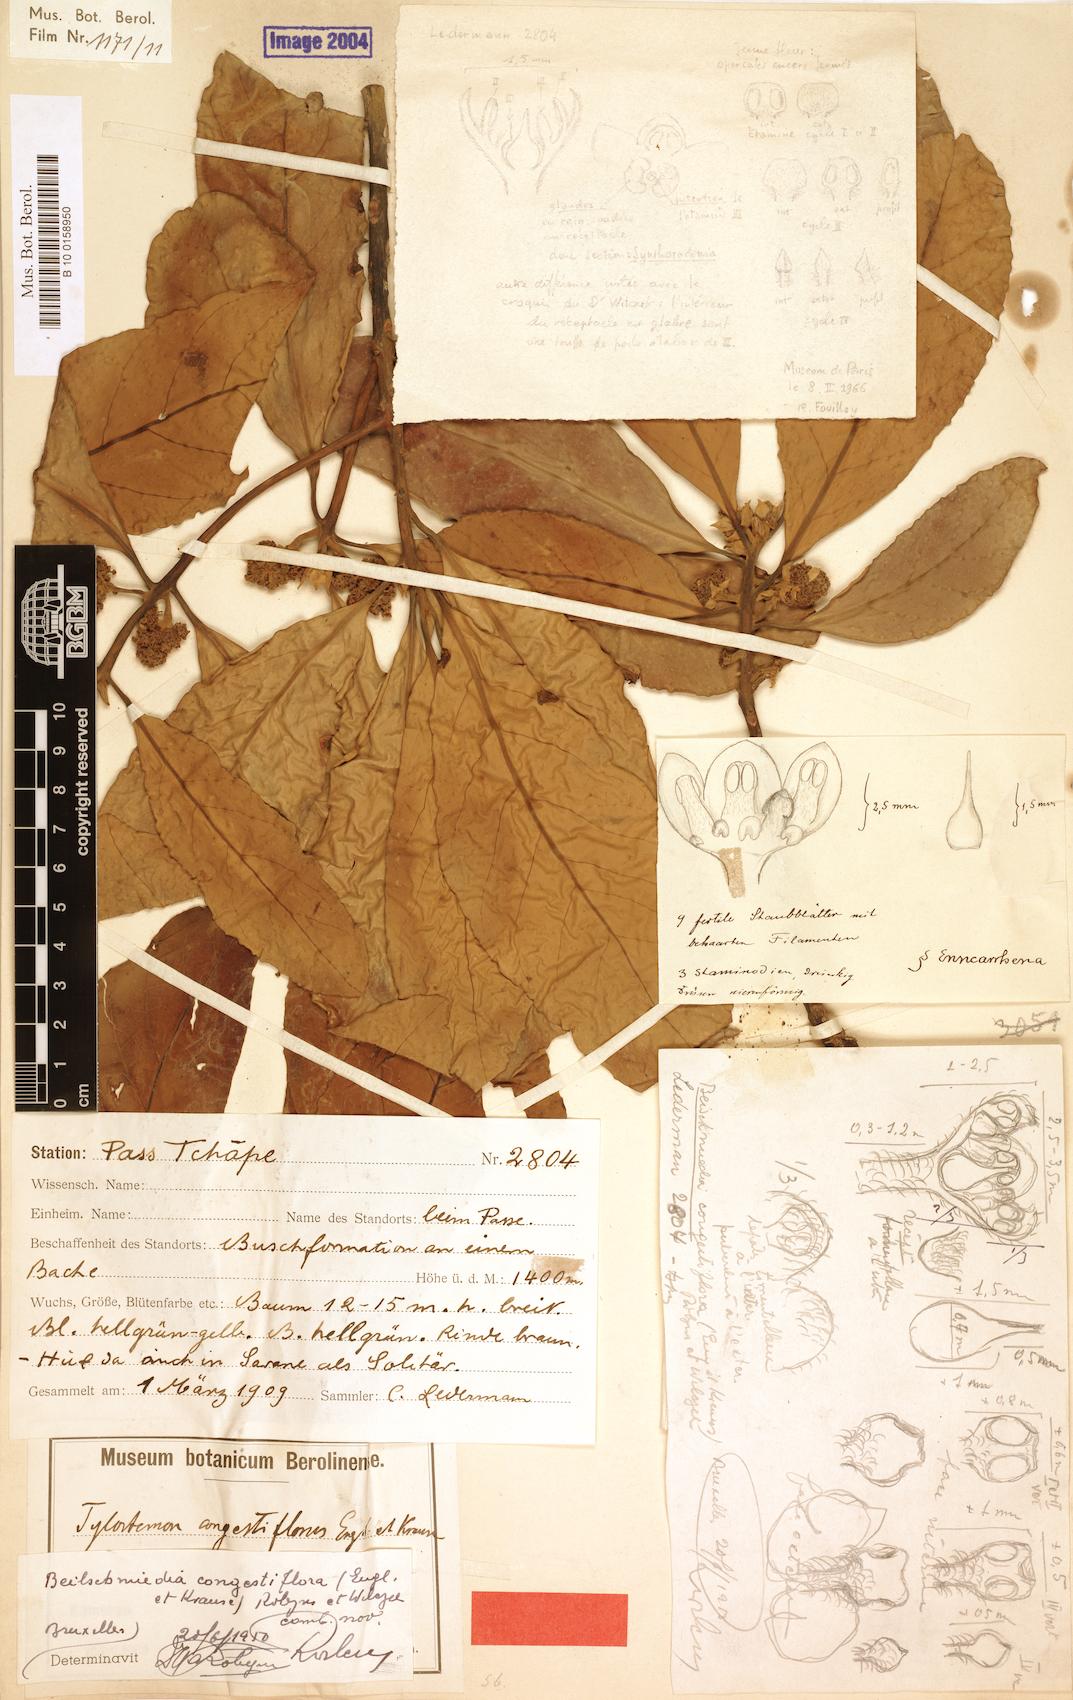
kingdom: Plantae
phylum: Tracheophyta
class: Magnoliopsida
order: Laurales
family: Lauraceae
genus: Beilschmiedia
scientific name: Beilschmiedia congestiflora
